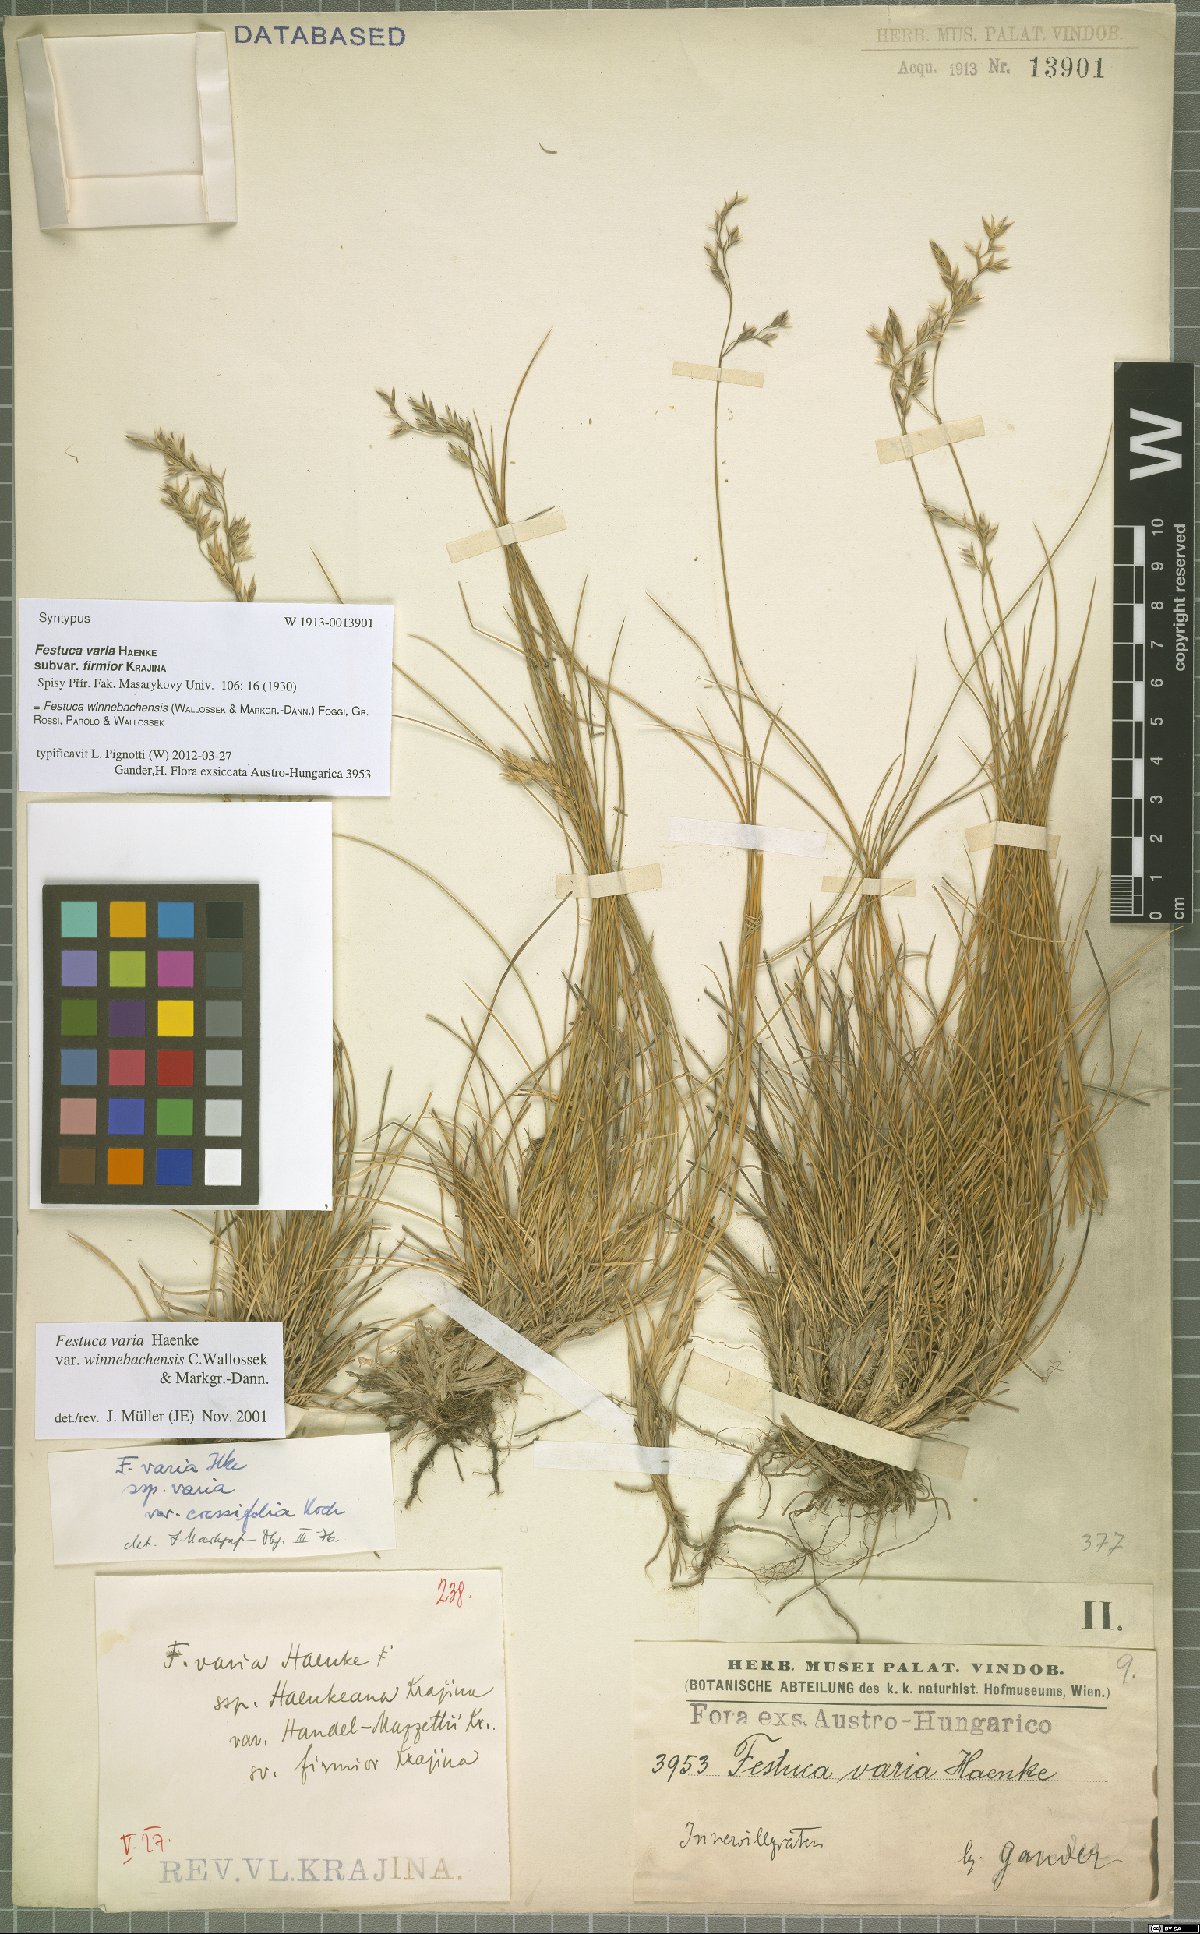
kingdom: Plantae
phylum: Tracheophyta
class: Liliopsida
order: Poales
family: Poaceae
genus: Festuca
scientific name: Festuca pseudovaria
